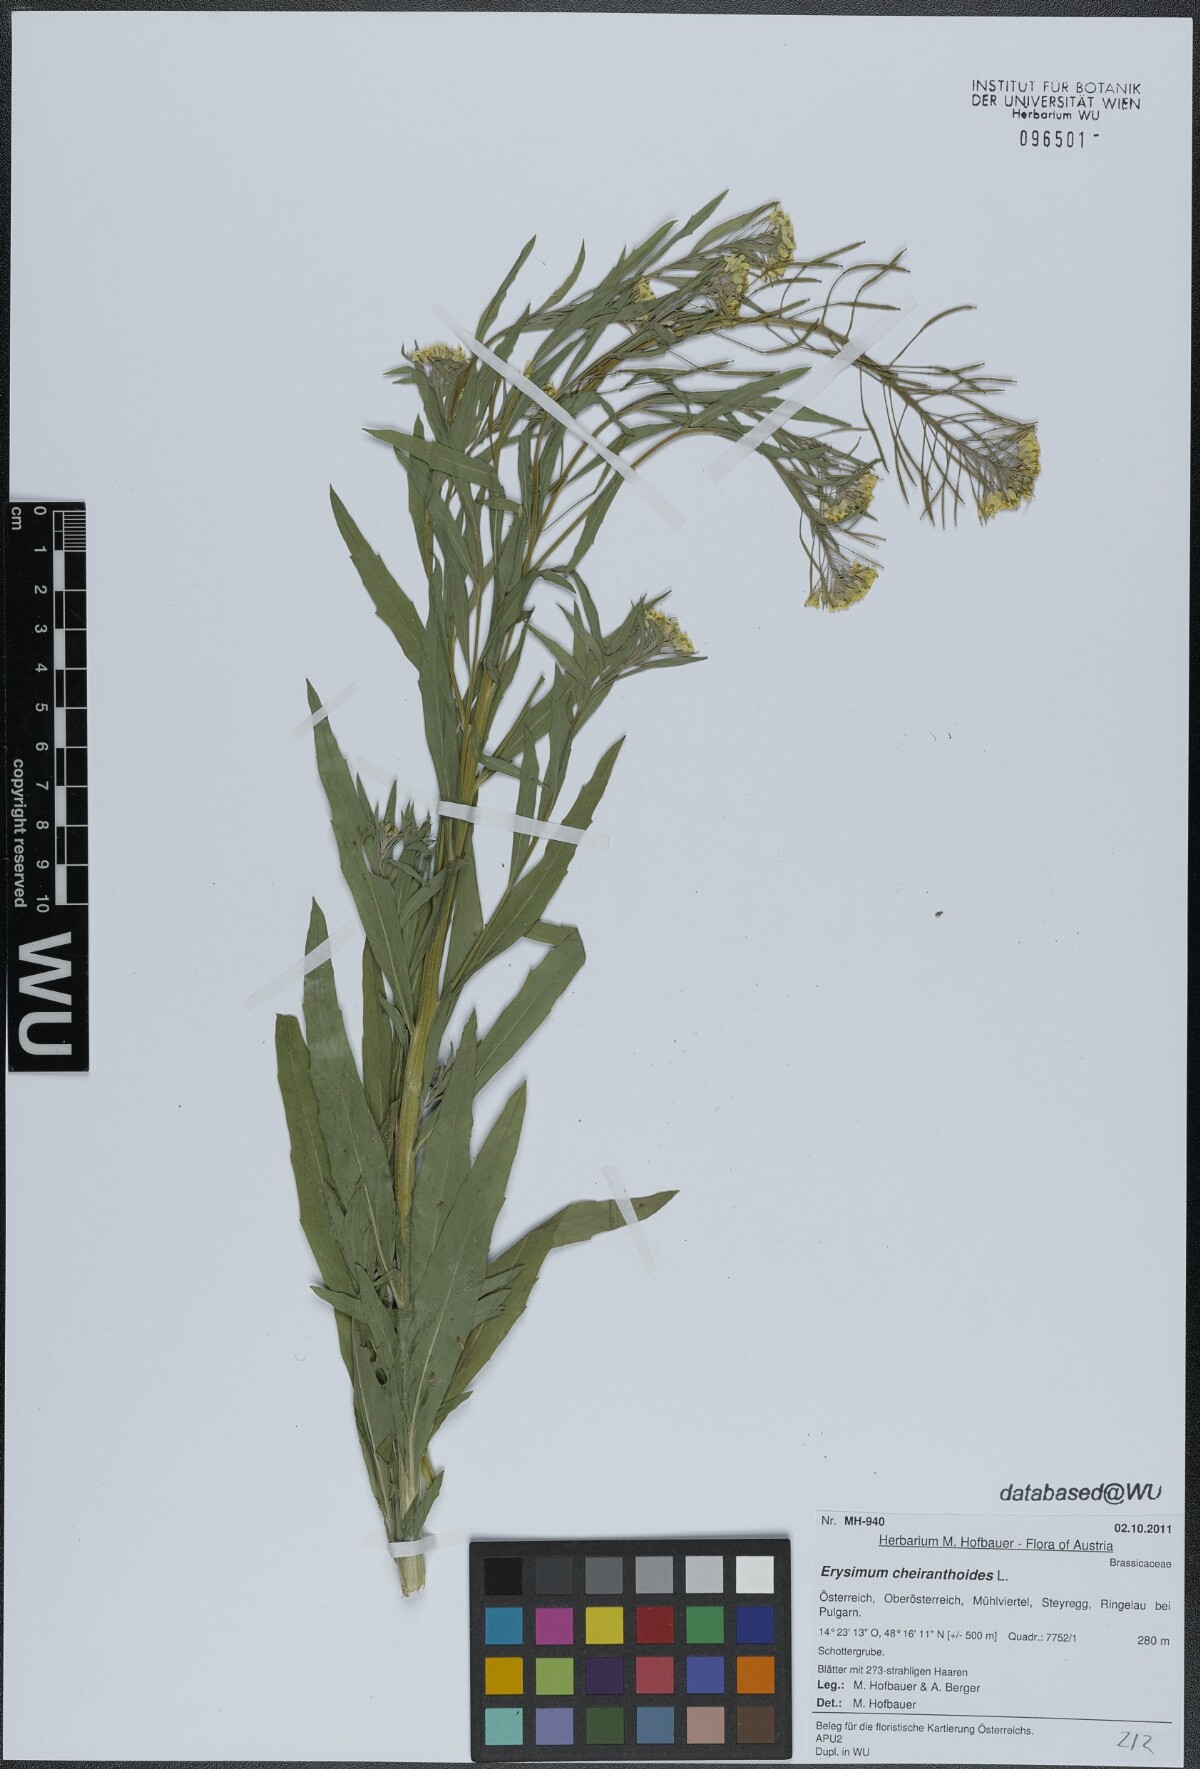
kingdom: Plantae
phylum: Tracheophyta
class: Magnoliopsida
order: Brassicales
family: Brassicaceae
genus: Erysimum
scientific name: Erysimum cheiranthoides
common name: Treacle mustard
